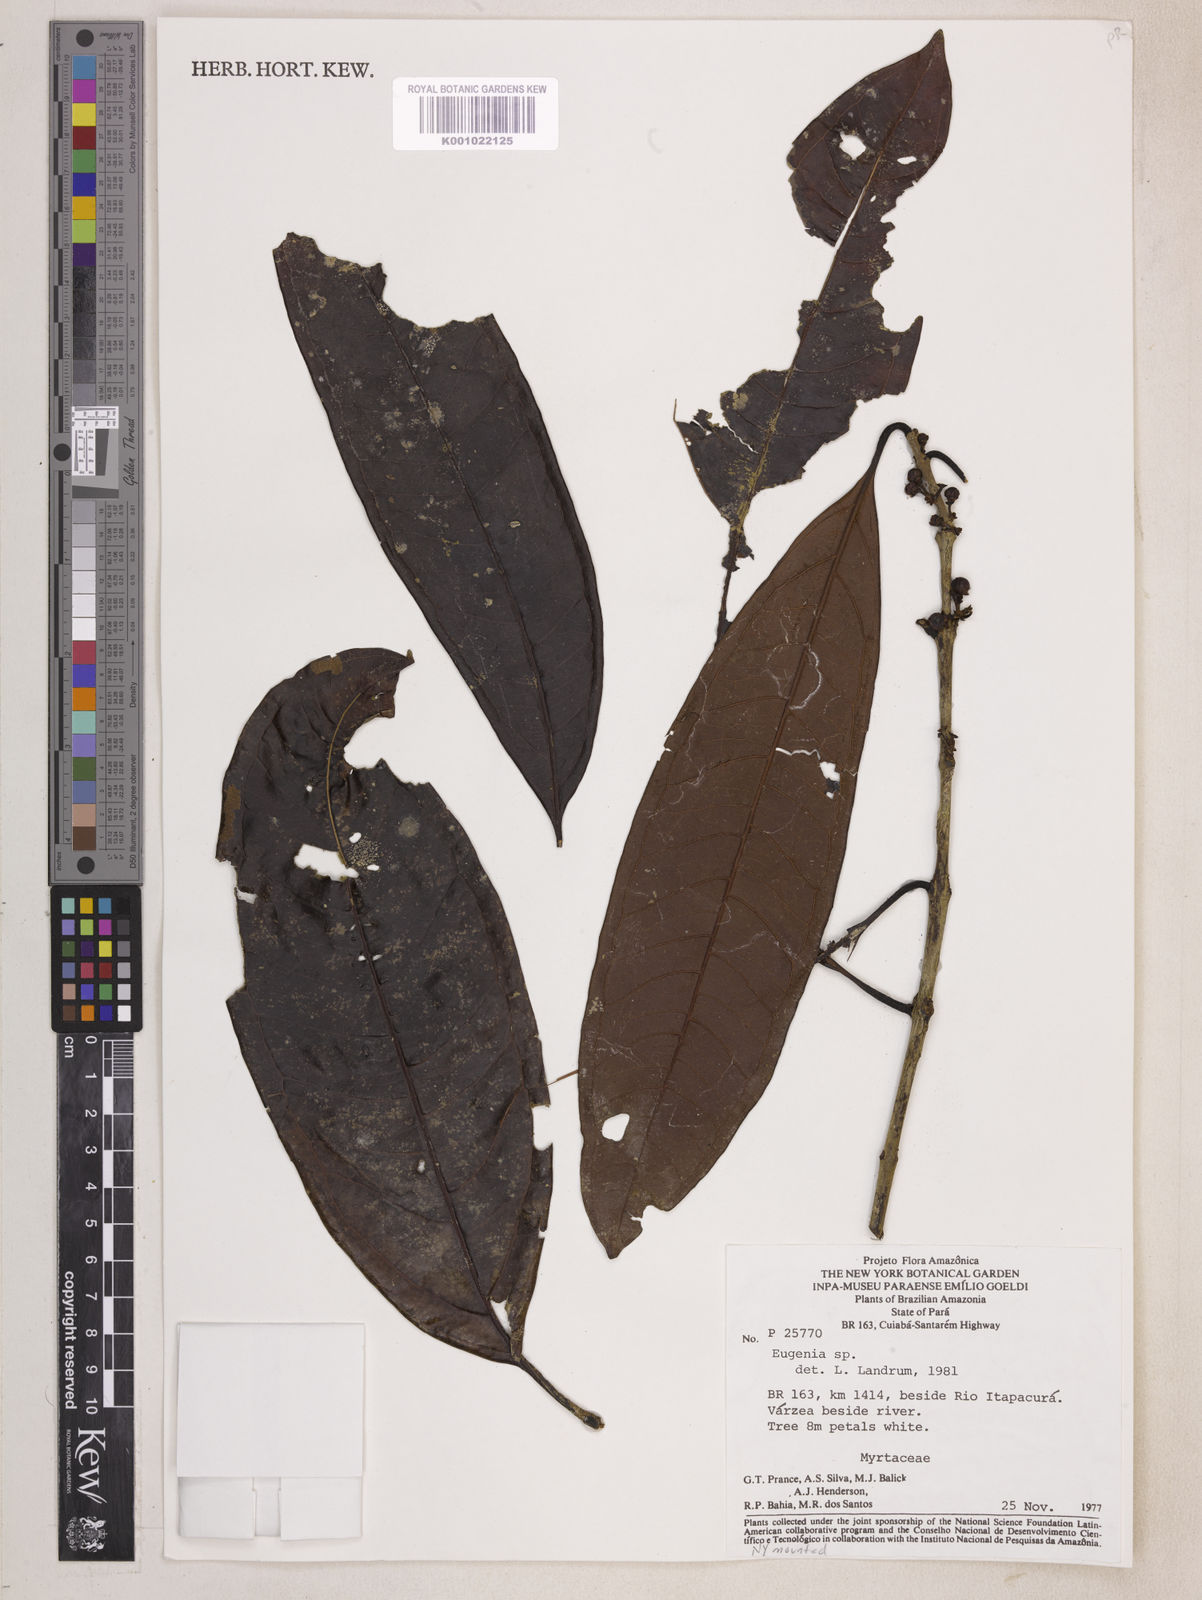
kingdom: Plantae
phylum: Tracheophyta
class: Magnoliopsida
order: Myrtales
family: Myrtaceae
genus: Eugenia
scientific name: Eugenia omissa
